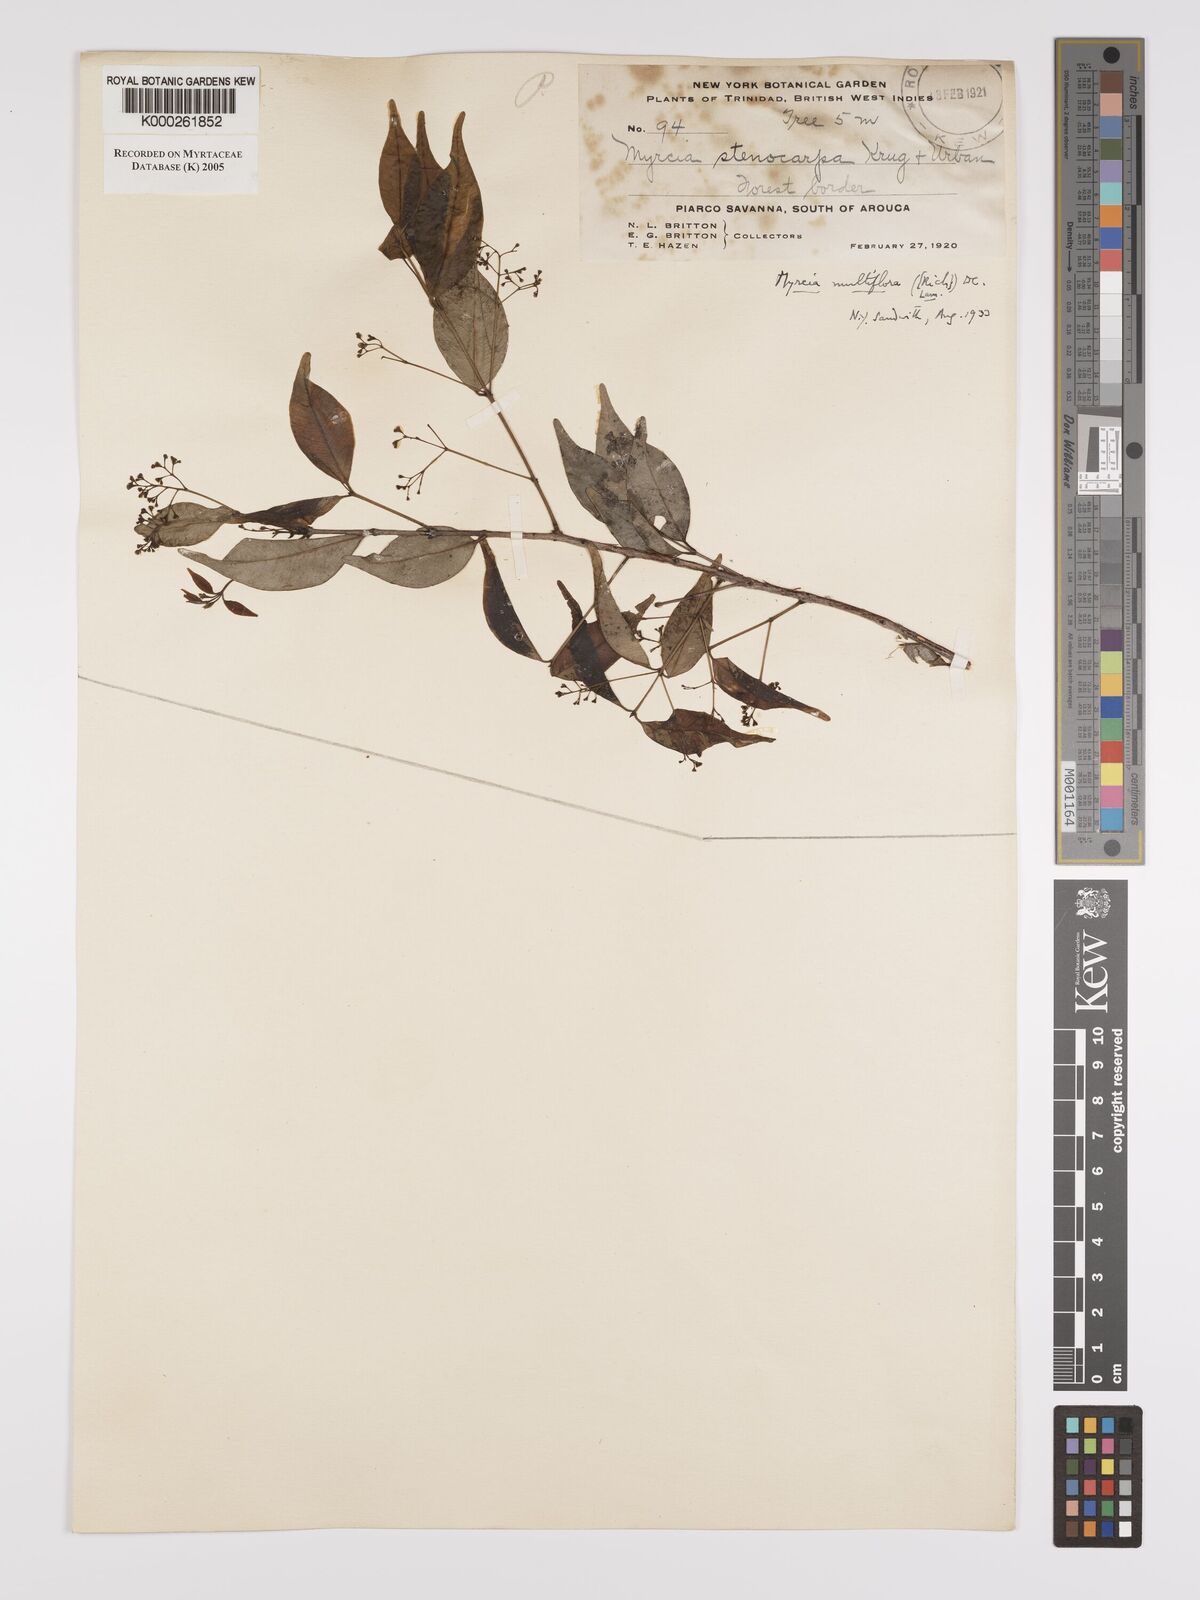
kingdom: Plantae
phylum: Tracheophyta
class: Magnoliopsida
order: Myrtales
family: Myrtaceae
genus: Myrcia
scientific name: Myrcia multiflora
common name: Pedra hume
